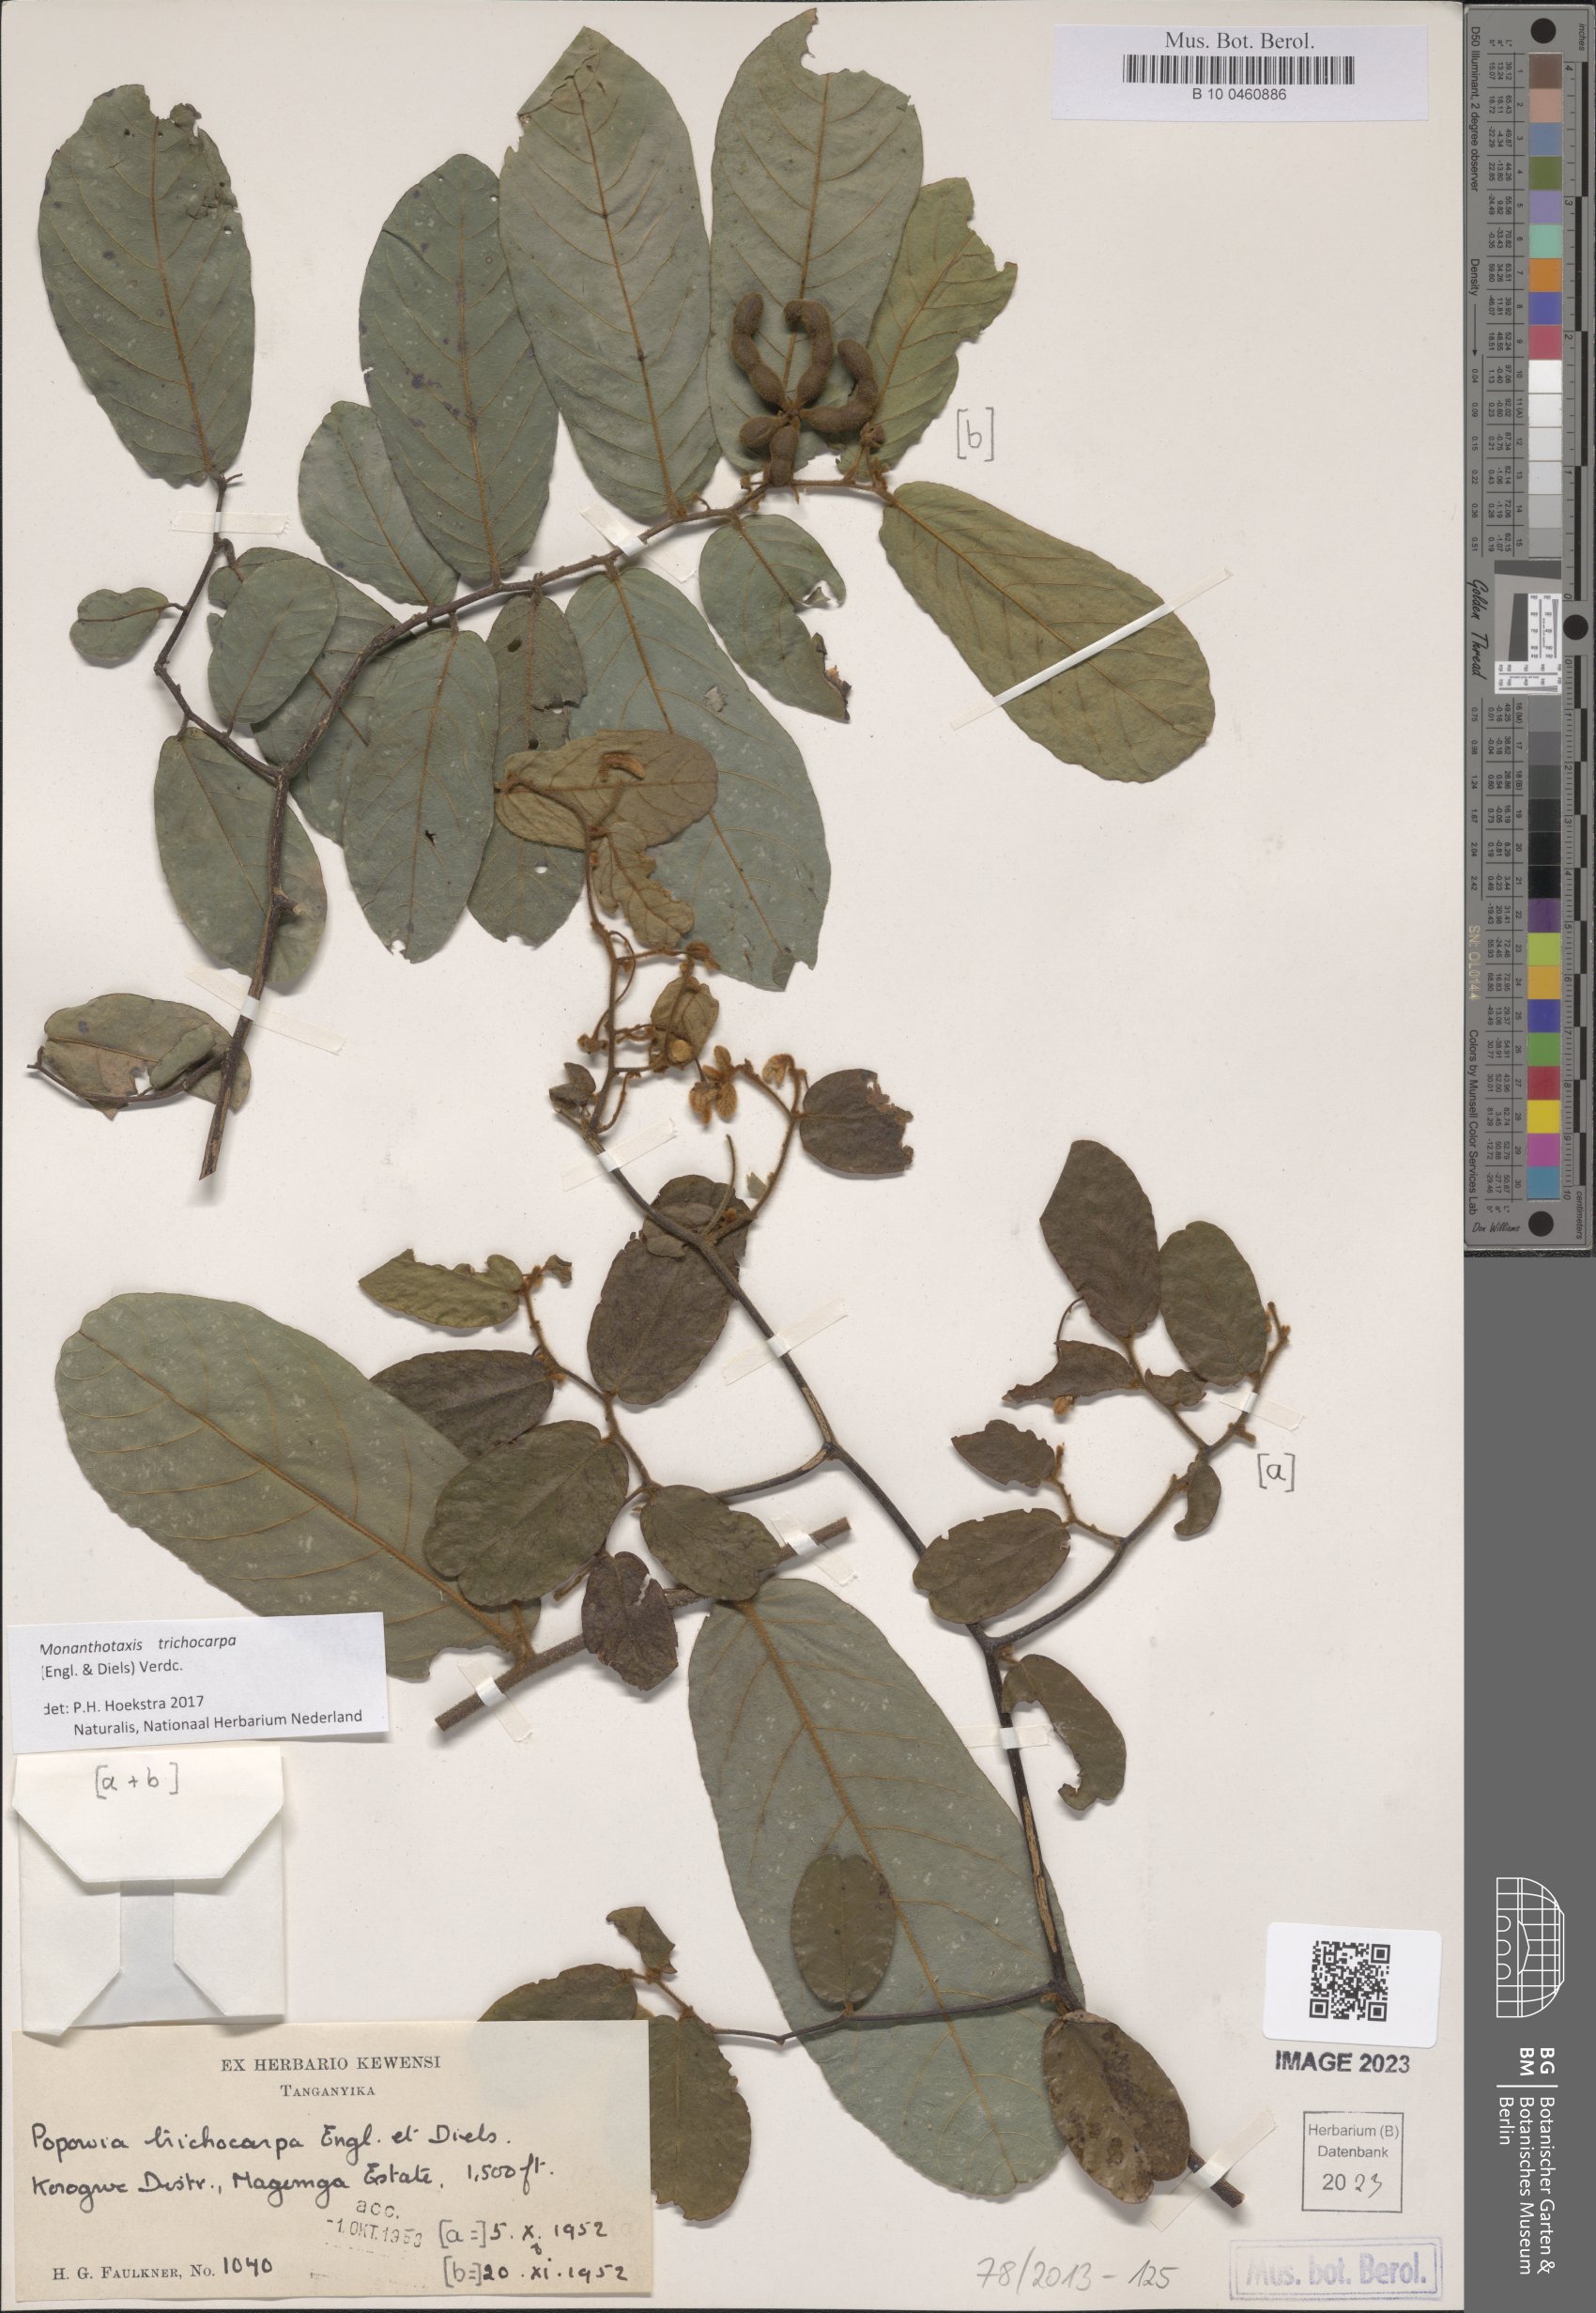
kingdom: Plantae
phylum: Tracheophyta
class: Magnoliopsida
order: Magnoliales
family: Annonaceae
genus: Monanthotaxis
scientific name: Monanthotaxis trichocarpa
